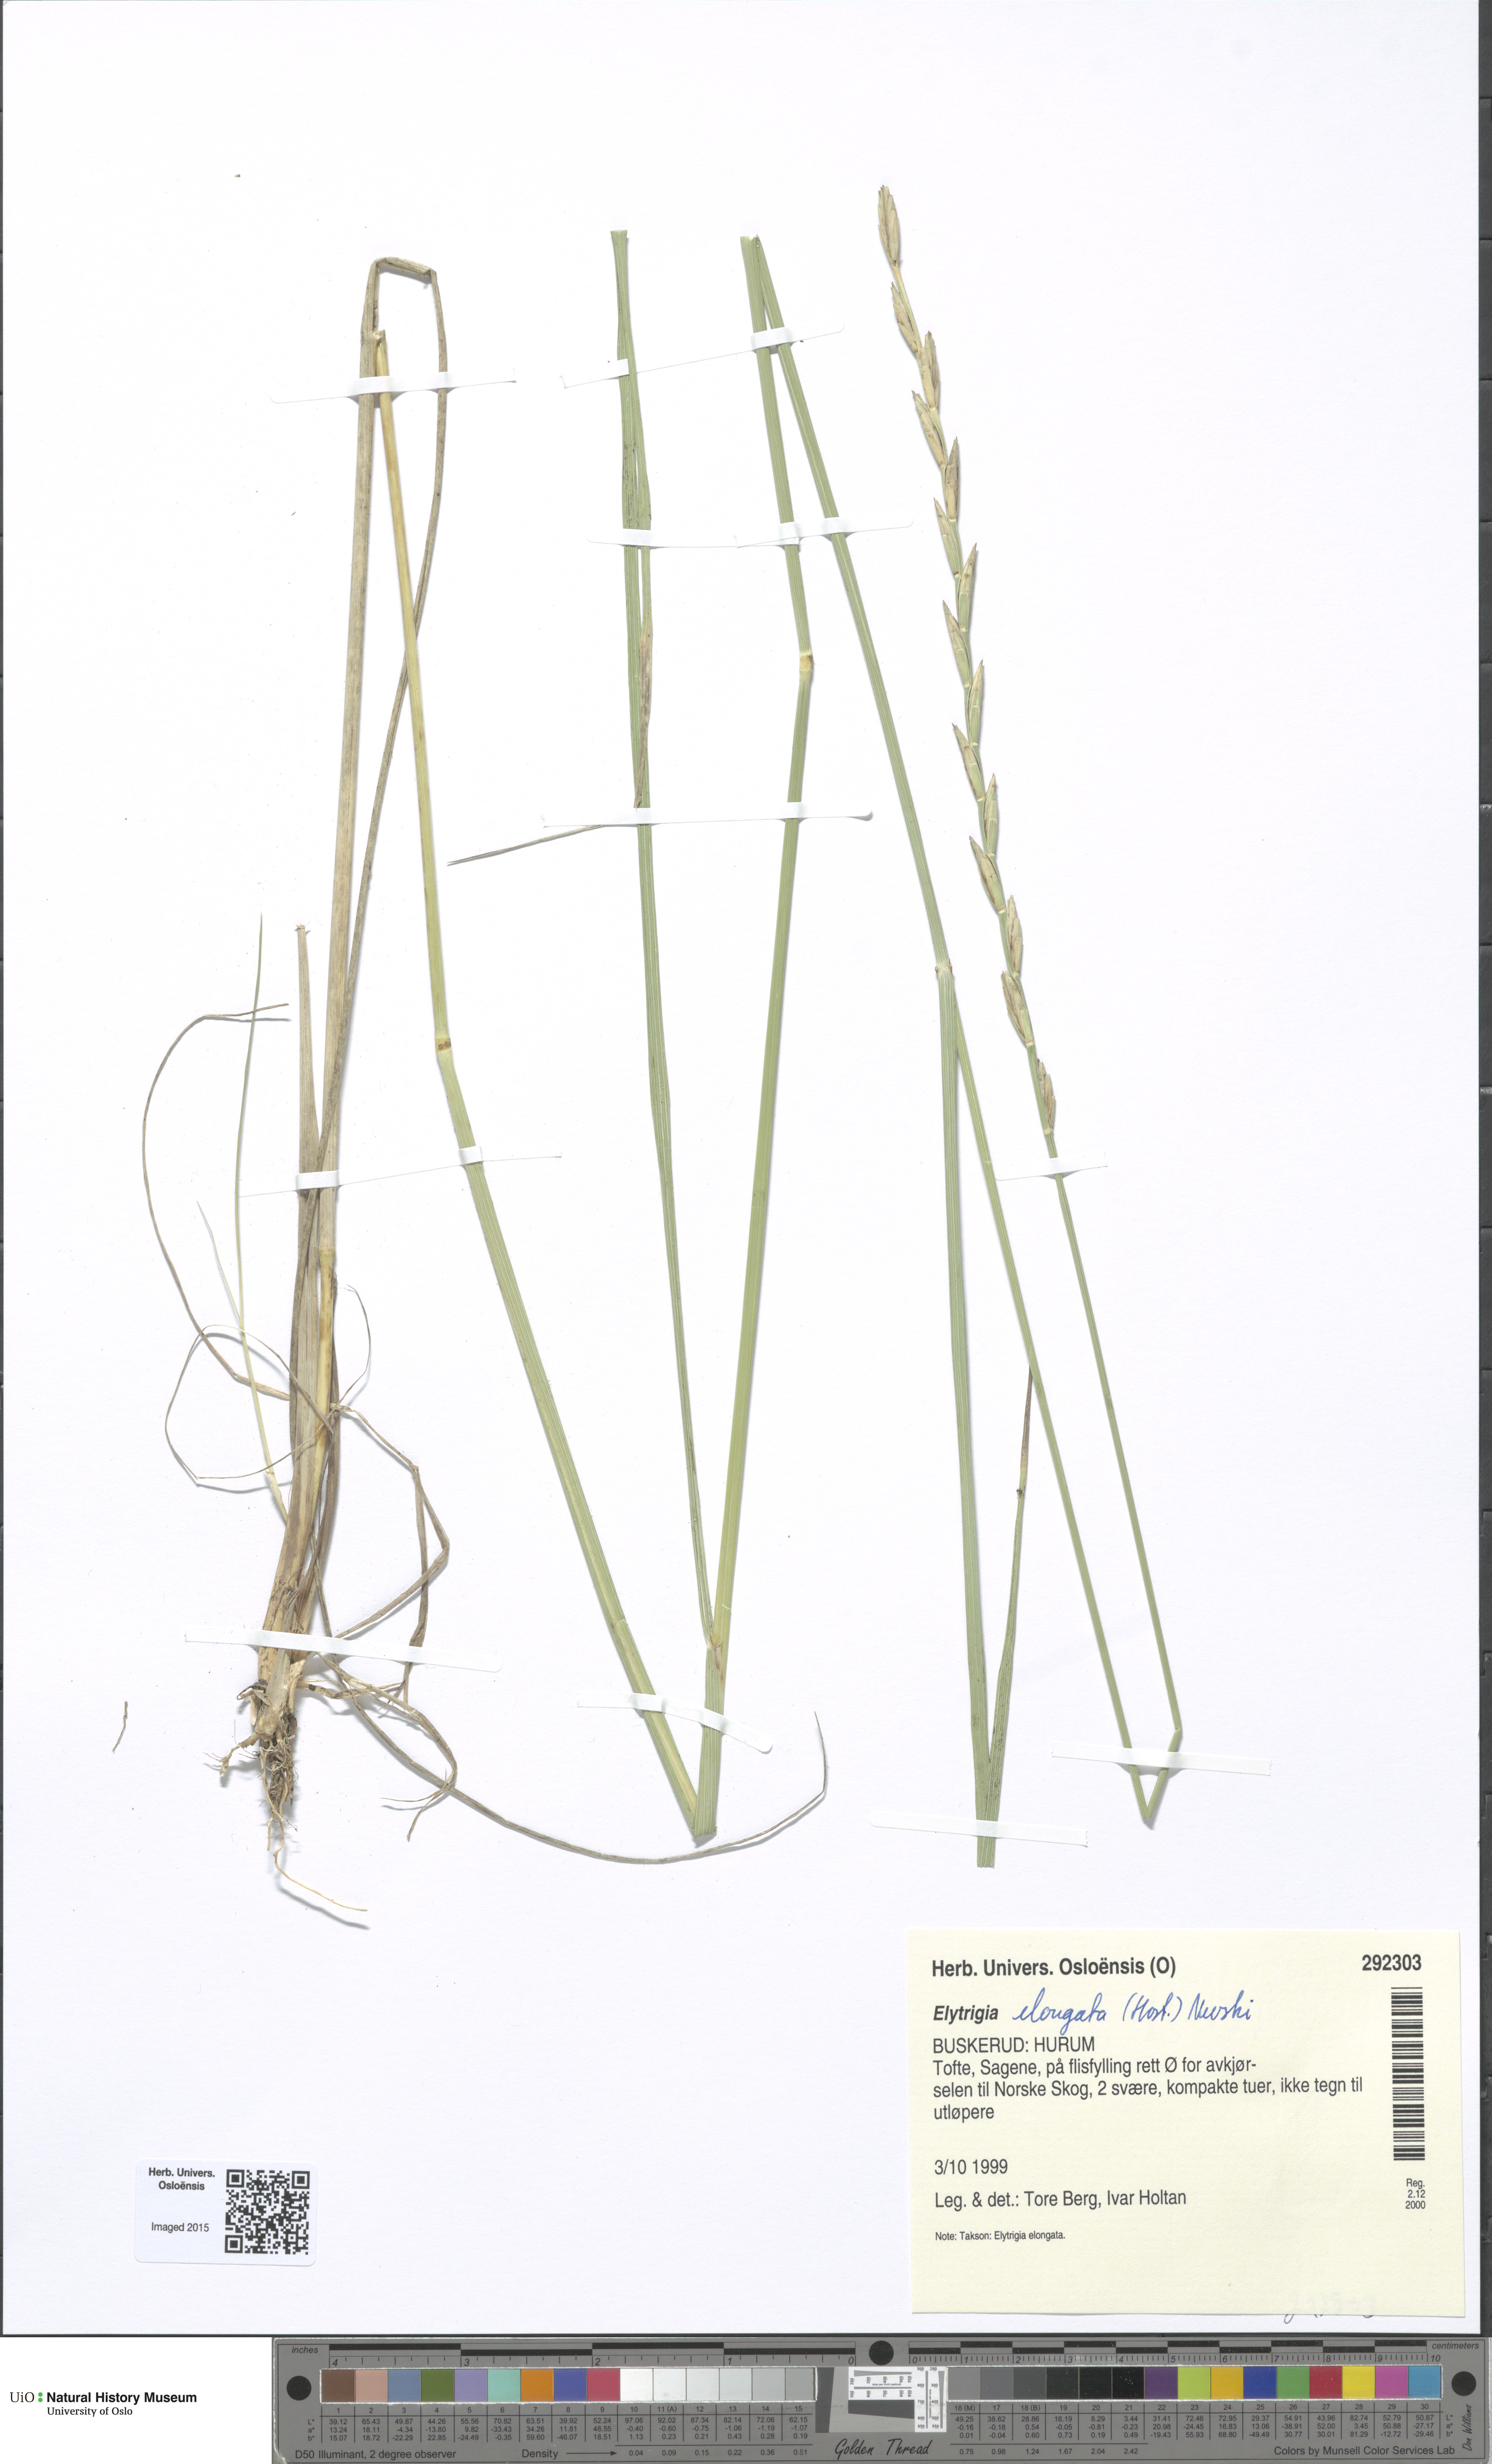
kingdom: Plantae
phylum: Tracheophyta
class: Liliopsida
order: Poales
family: Poaceae
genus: Thinopyrum
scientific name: Thinopyrum elongatum
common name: Tall wheatgrass
